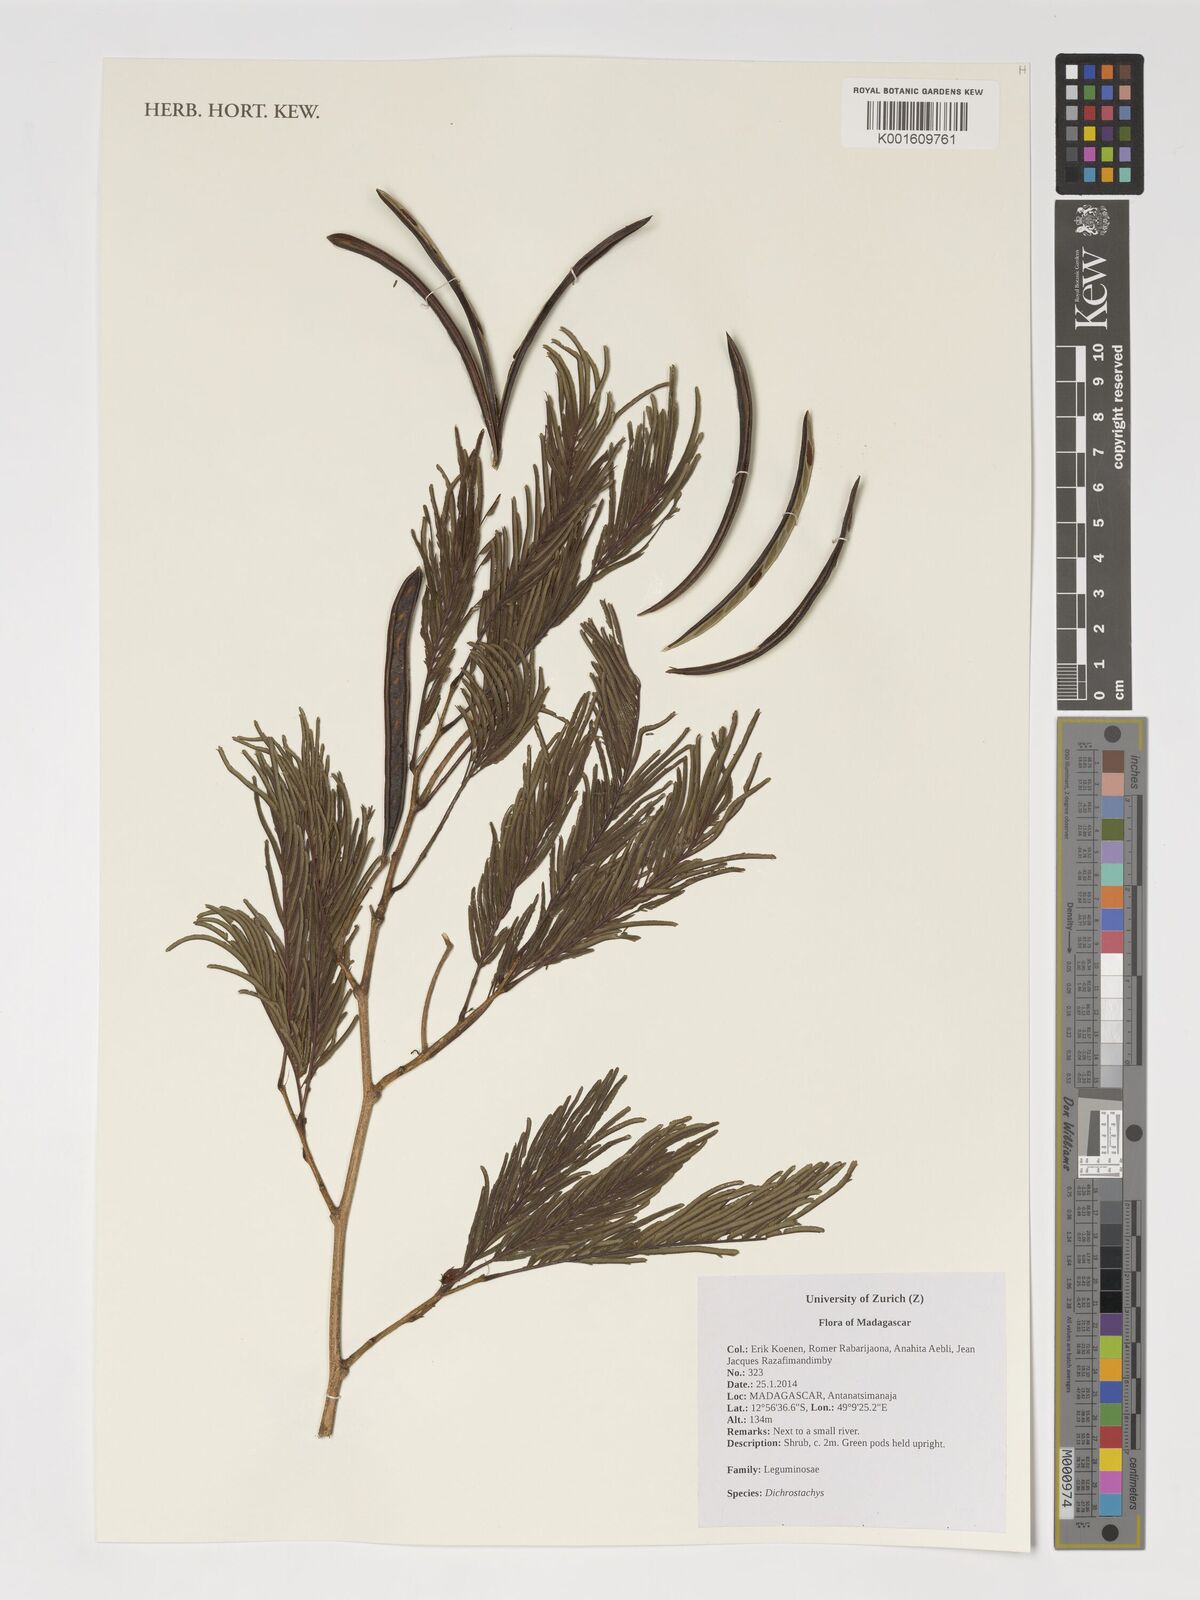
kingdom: Plantae
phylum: Tracheophyta
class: Magnoliopsida
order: Fabales
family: Fabaceae
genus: Dichrostachys
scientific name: Dichrostachys
